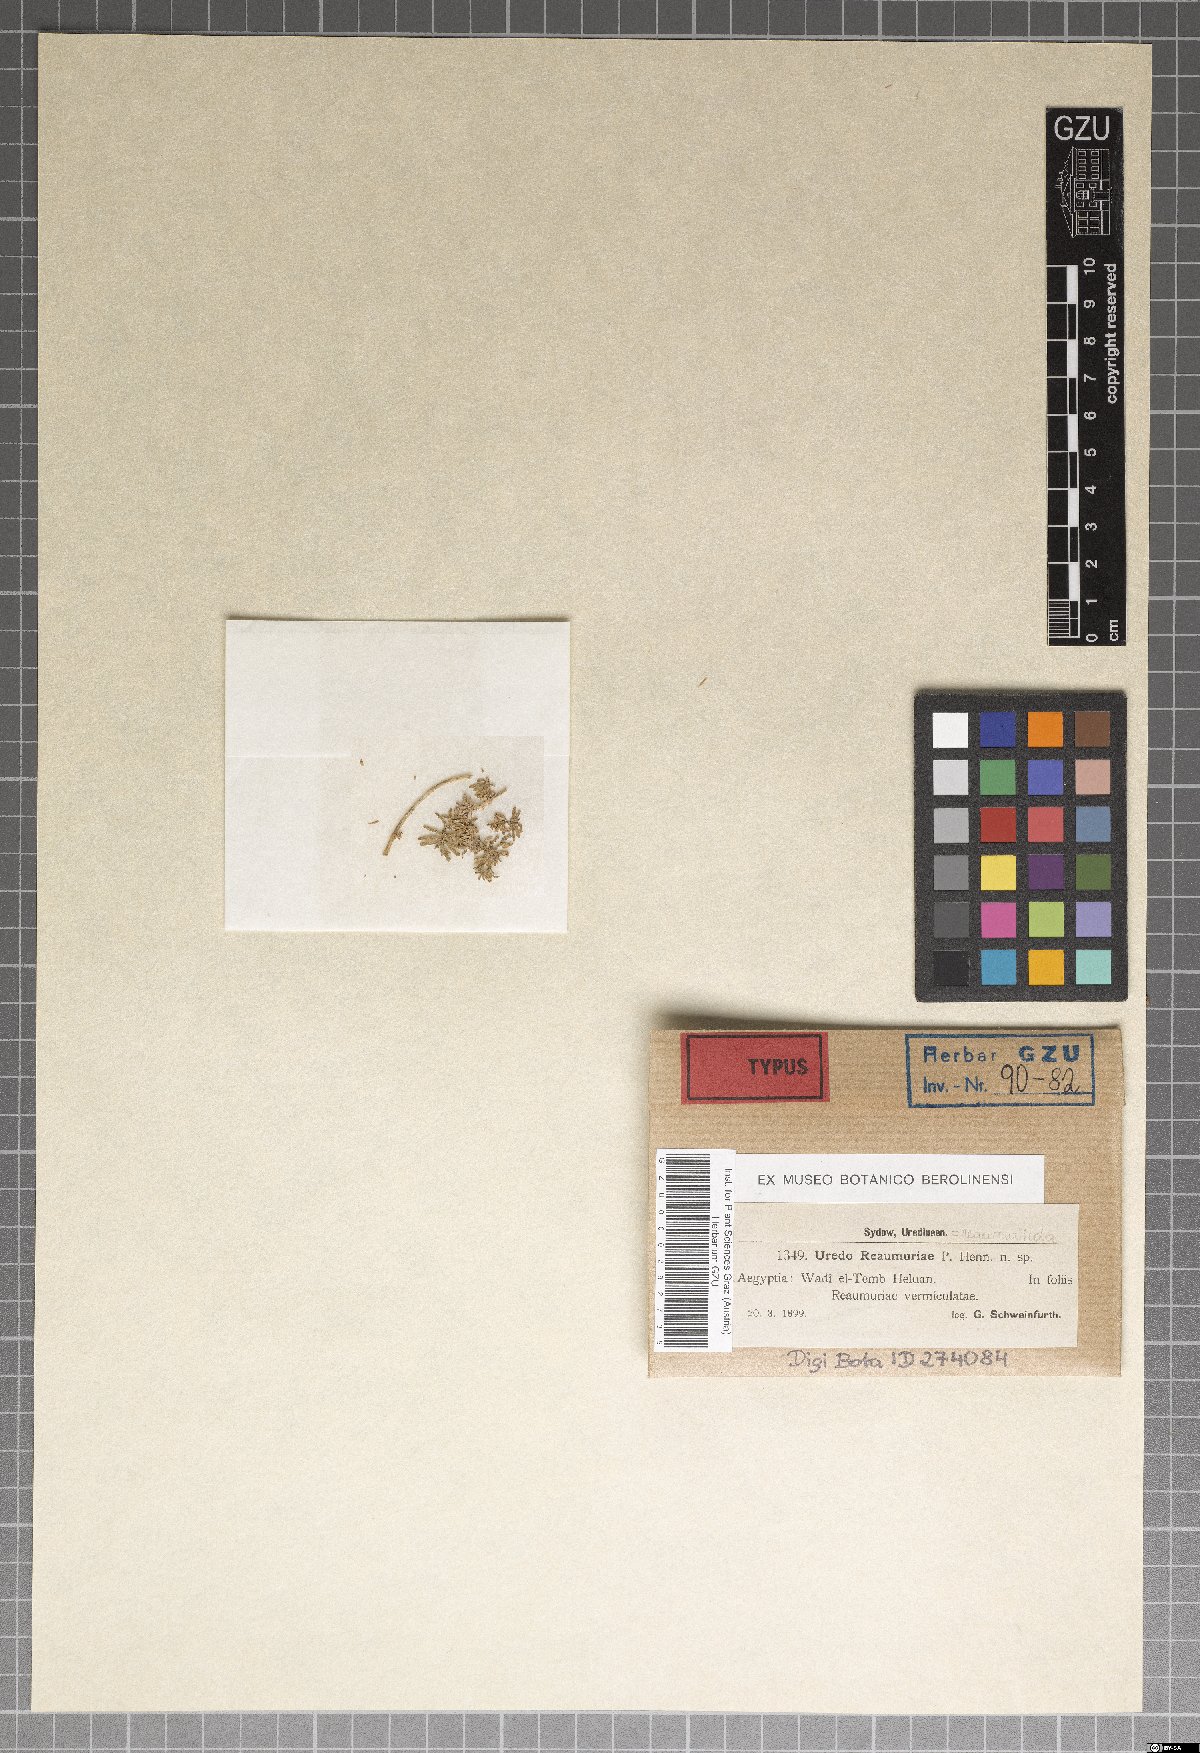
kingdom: Plantae
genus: Uredo
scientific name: Uredo
